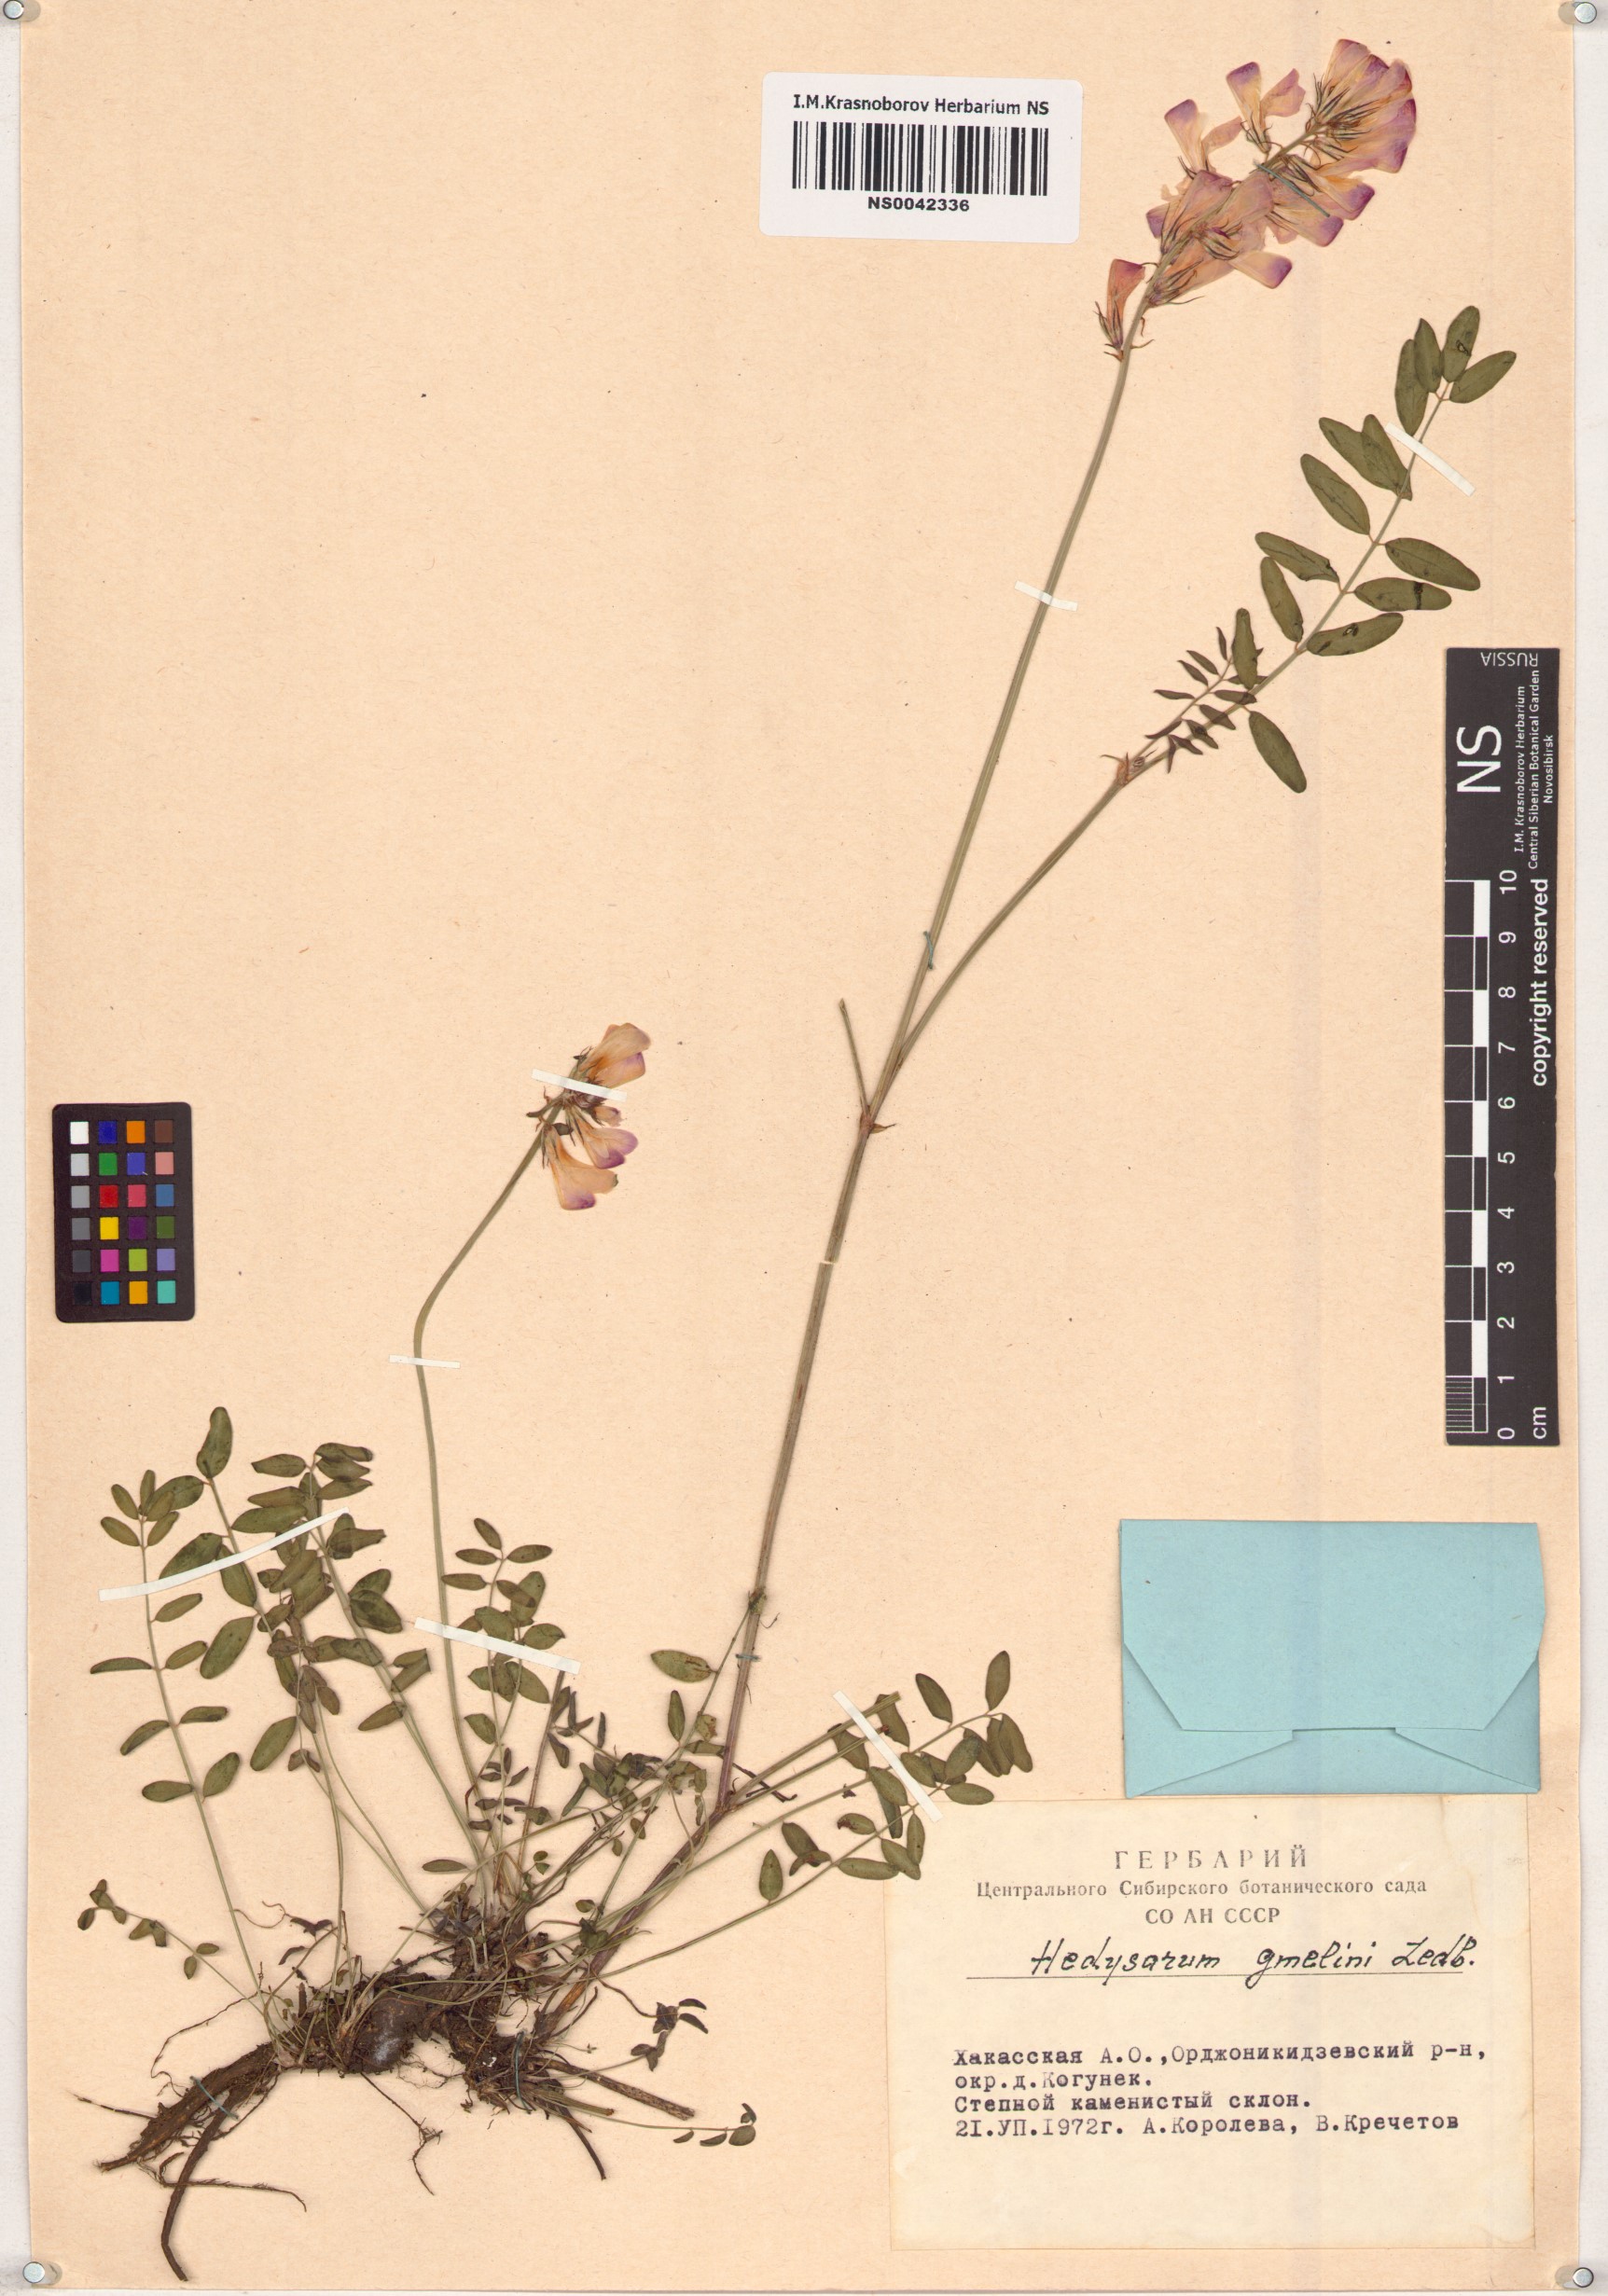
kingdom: Plantae
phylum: Tracheophyta
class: Magnoliopsida
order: Fabales
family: Fabaceae
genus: Hedysarum
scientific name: Hedysarum gmelinii
